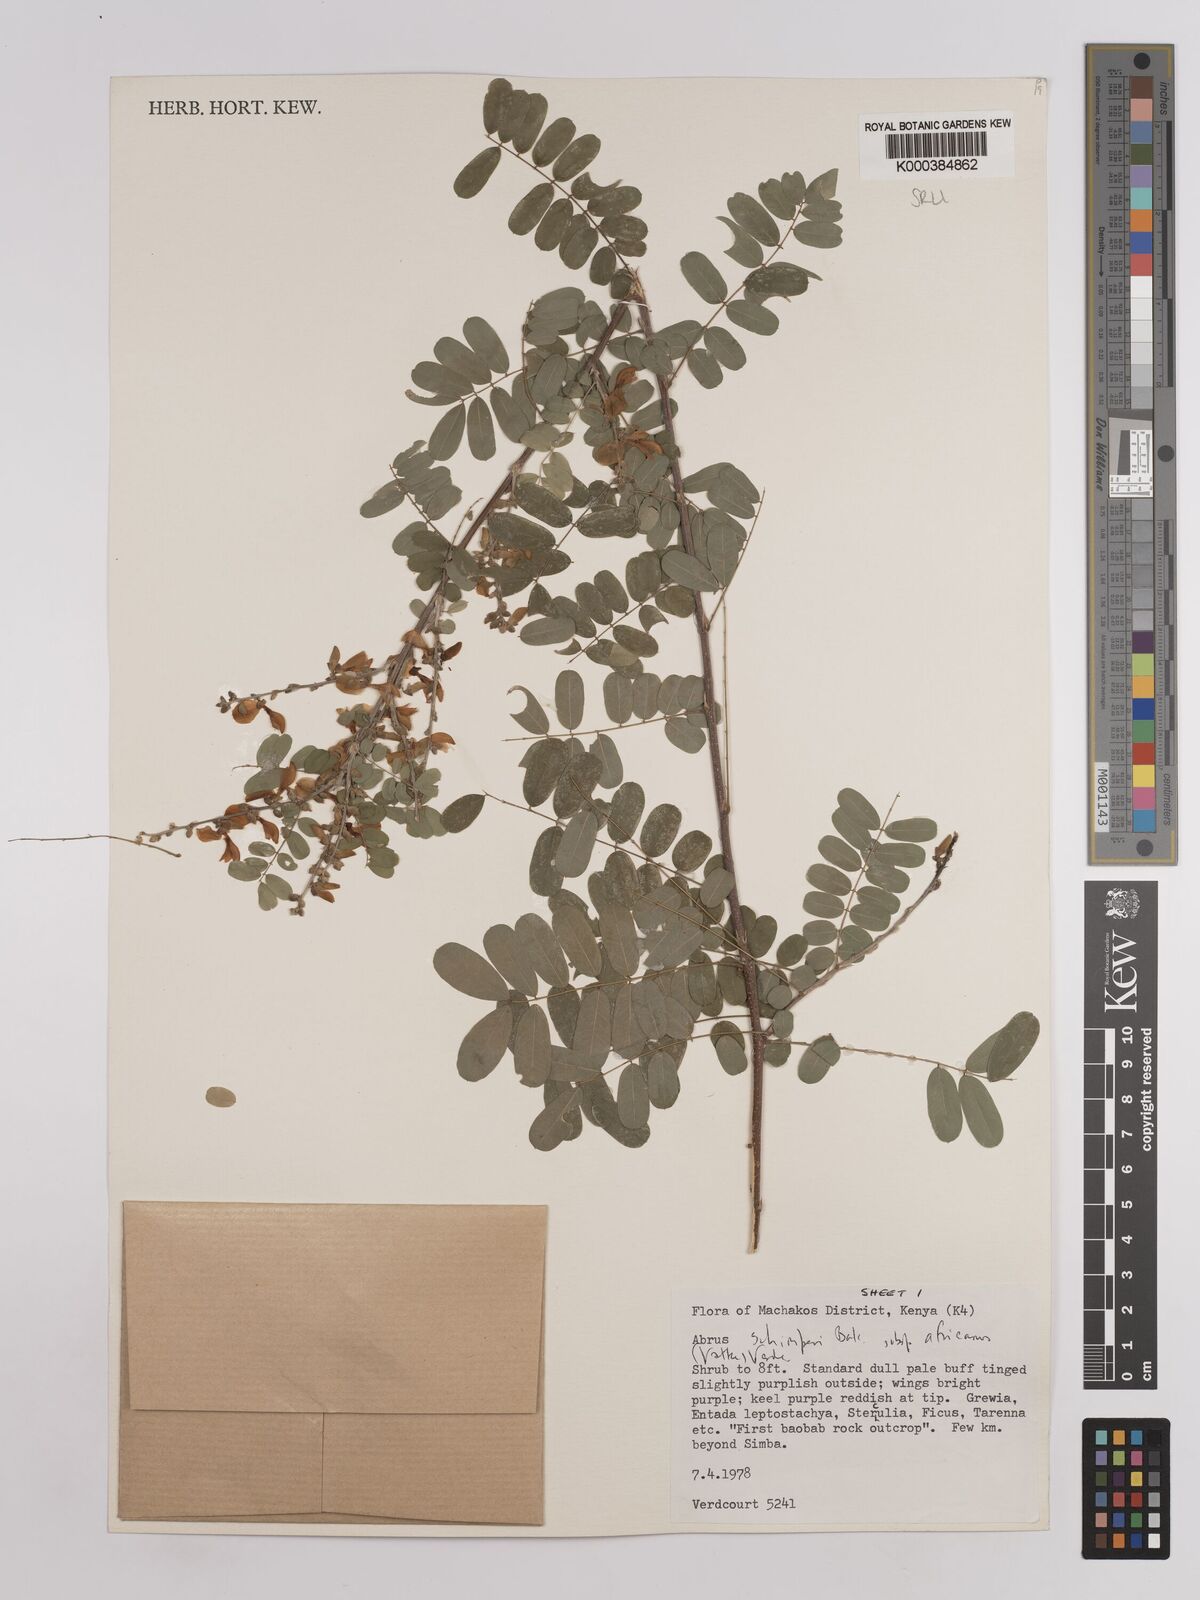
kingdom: Plantae
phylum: Tracheophyta
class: Magnoliopsida
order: Fabales
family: Fabaceae
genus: Abrus
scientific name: Abrus fruticulosus
